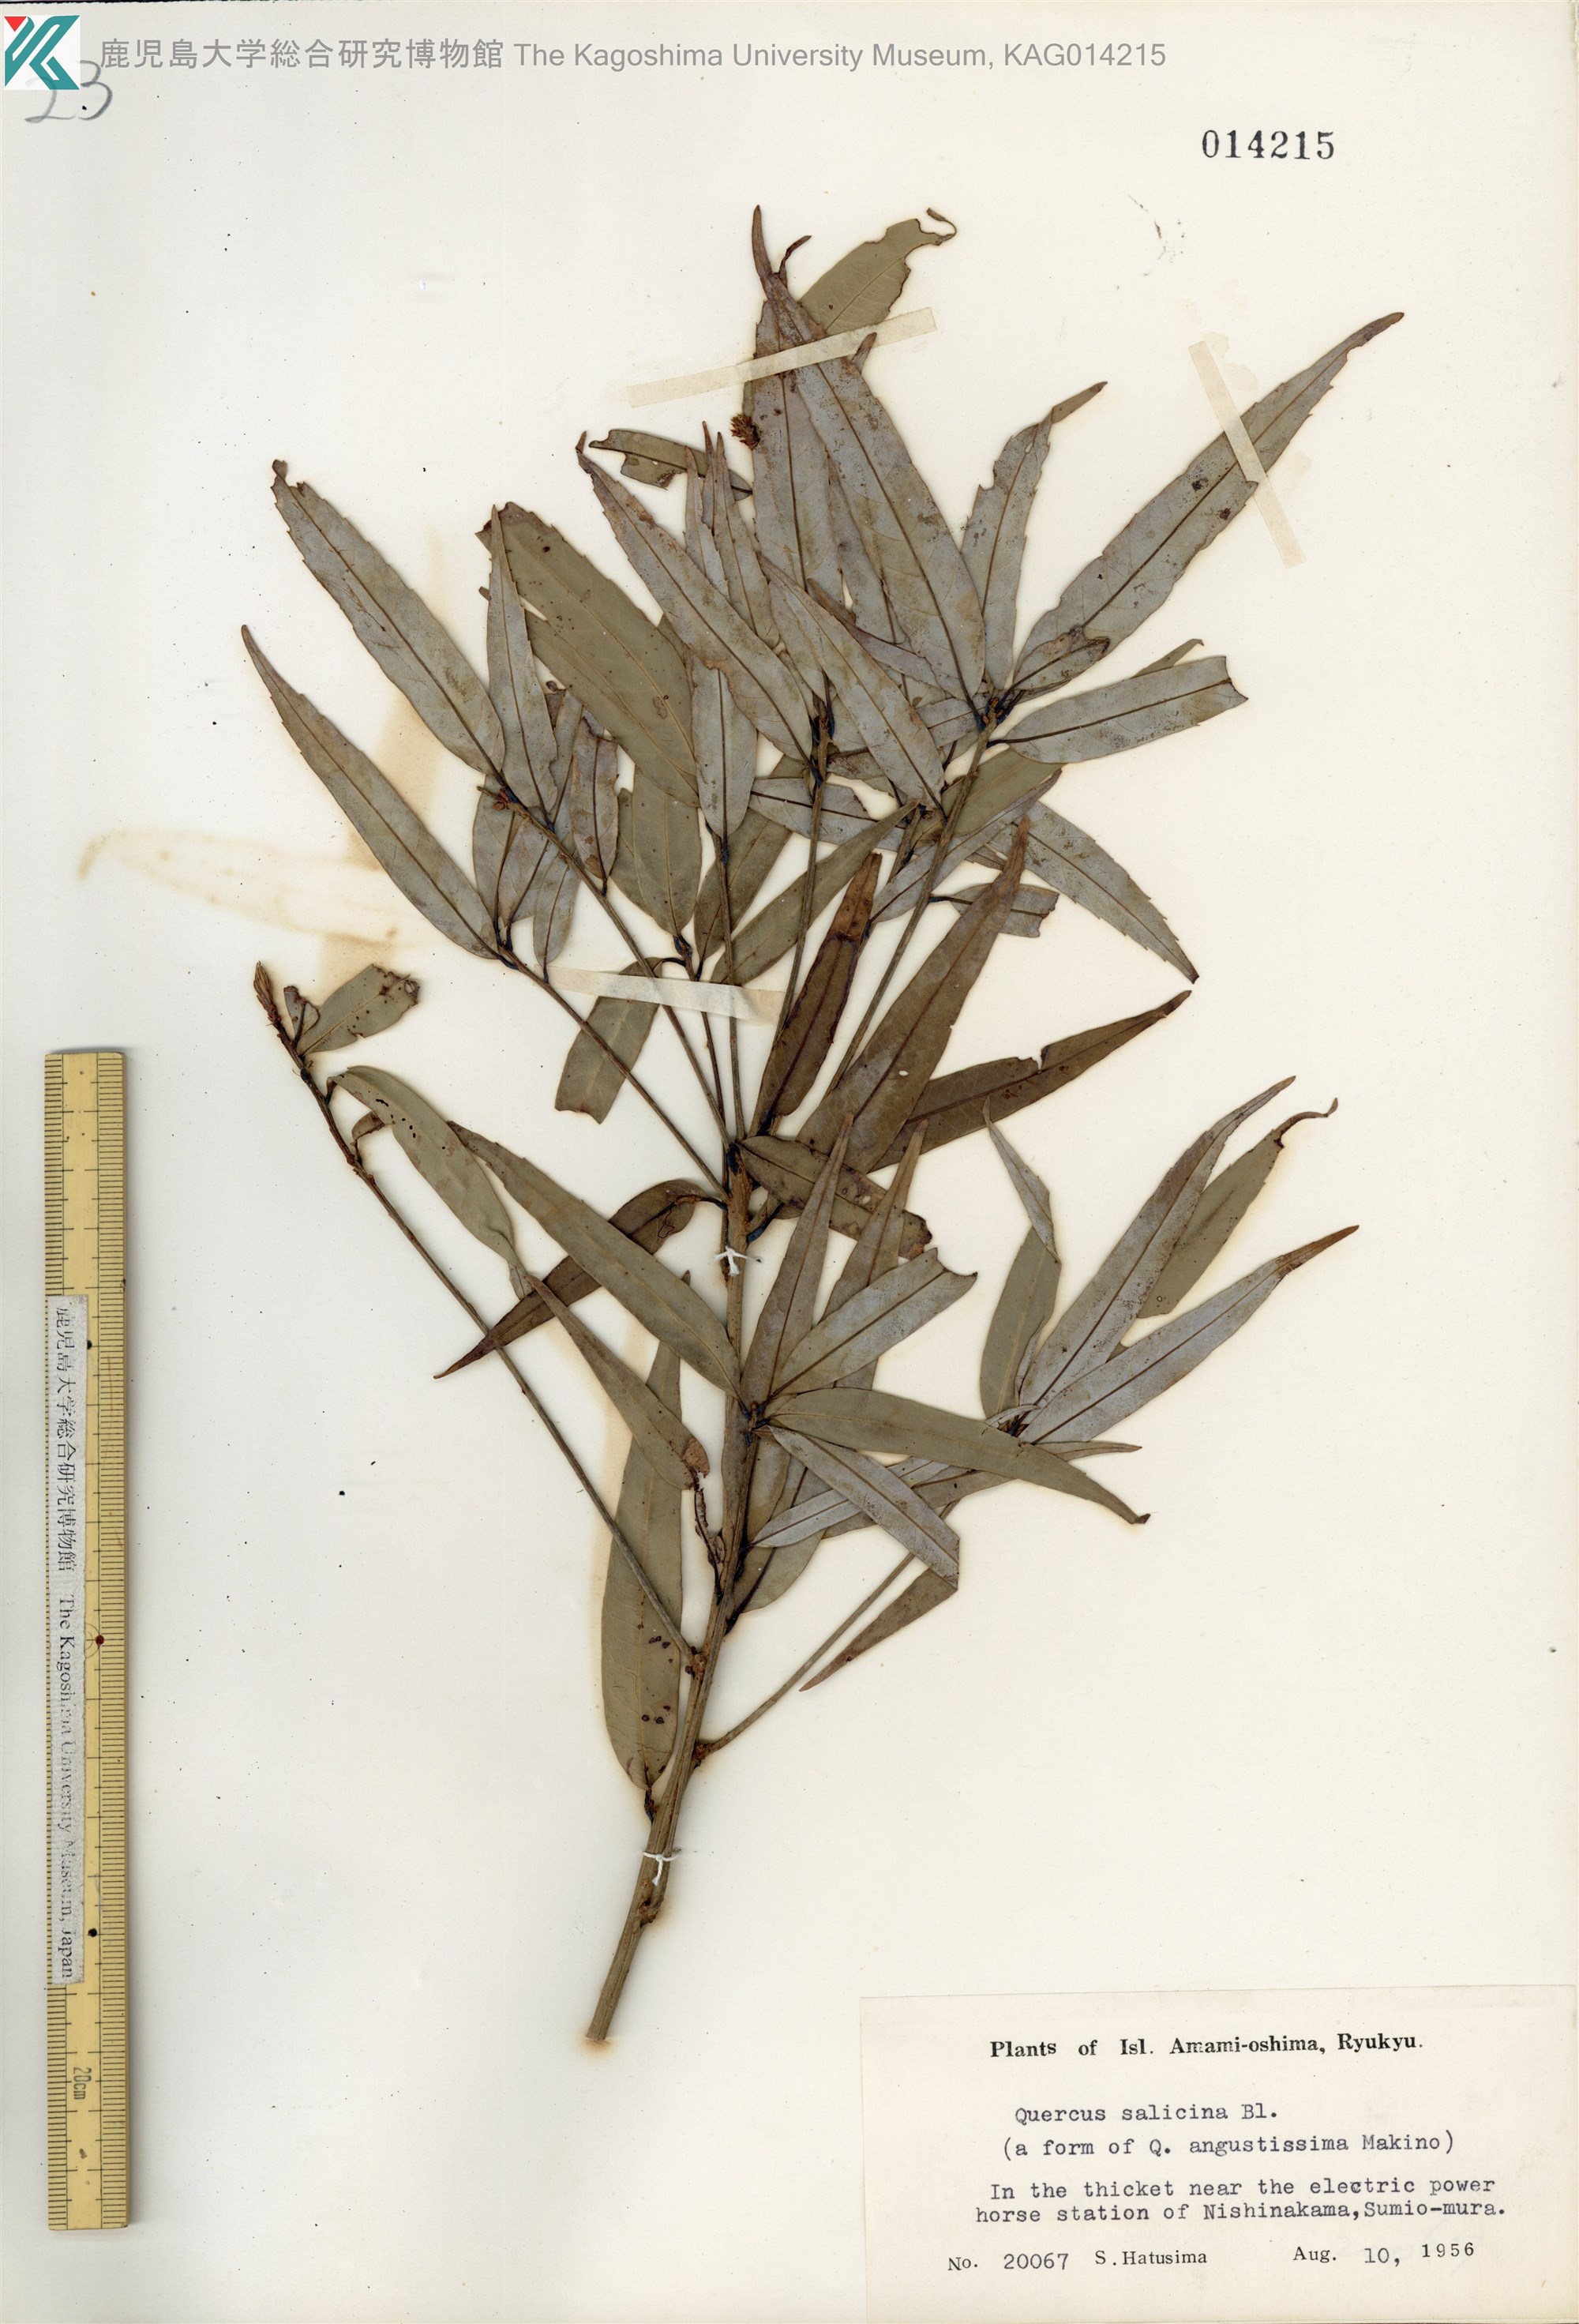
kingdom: Plantae
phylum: Tracheophyta
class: Magnoliopsida
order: Fagales
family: Fagaceae
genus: Quercus
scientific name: Quercus salicina
